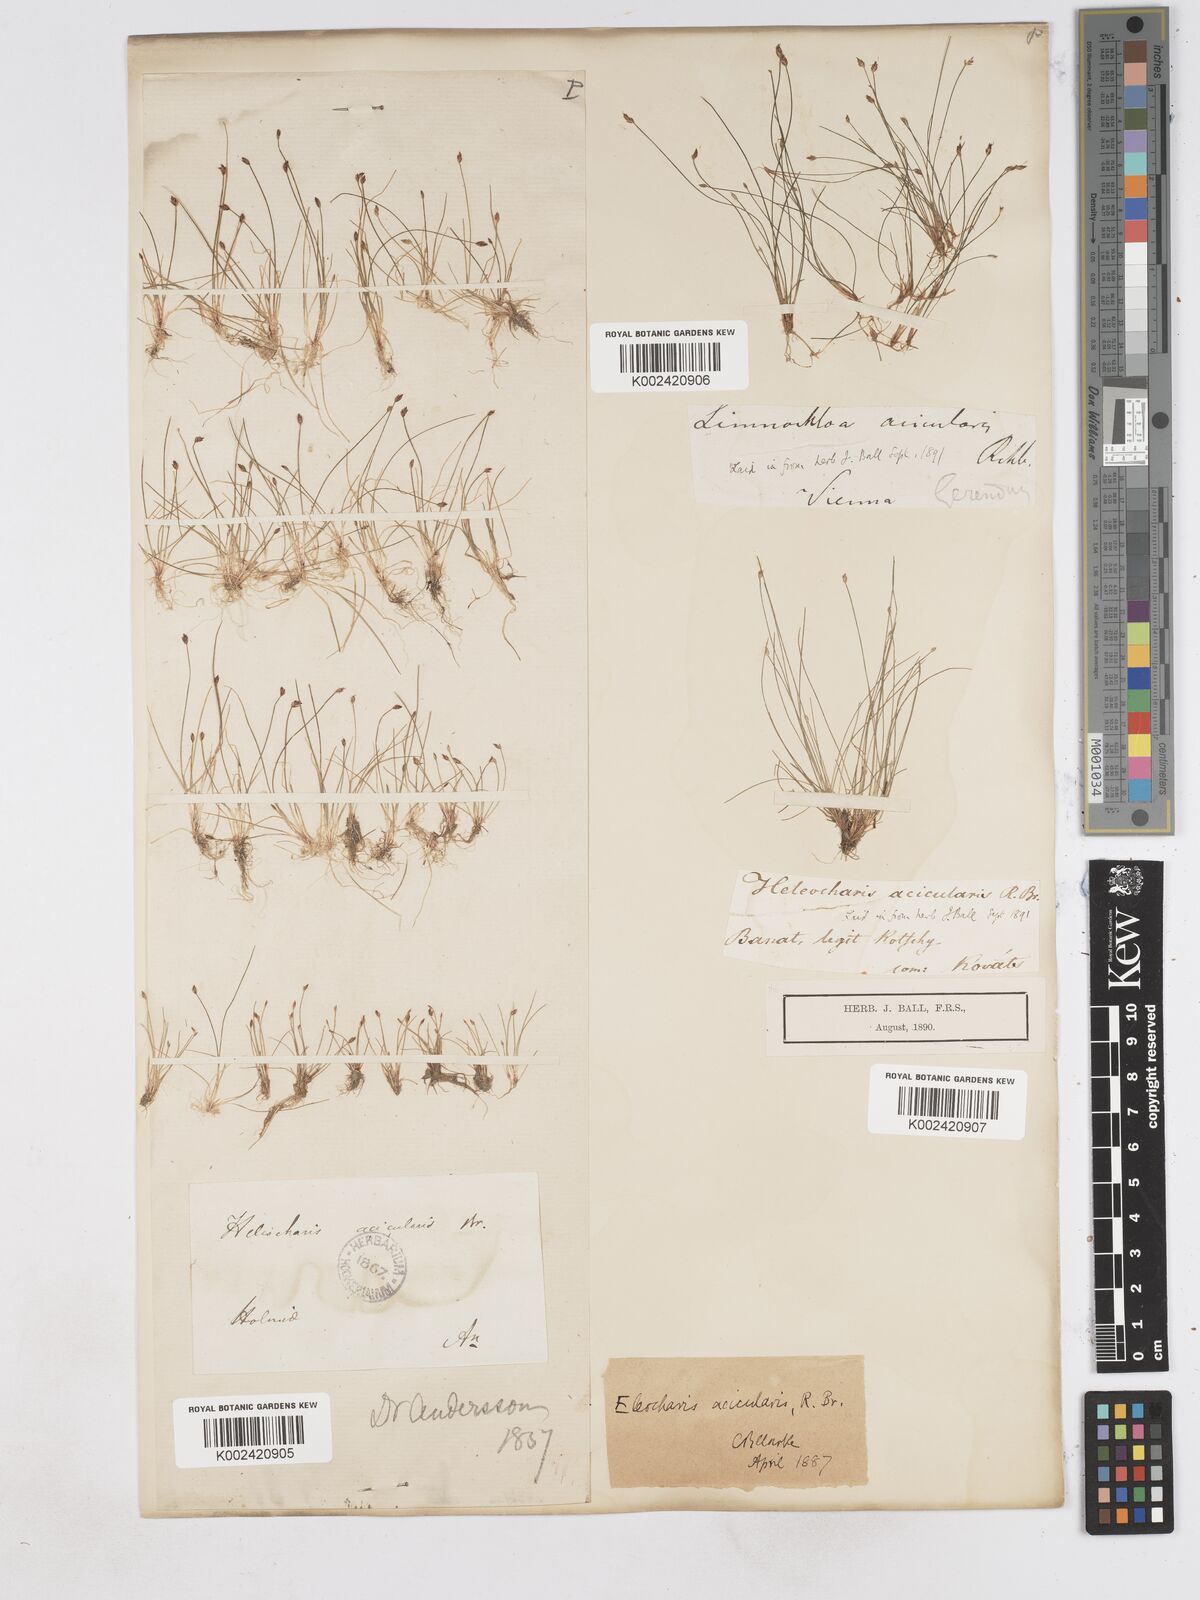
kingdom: Plantae
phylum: Tracheophyta
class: Liliopsida
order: Poales
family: Cyperaceae
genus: Eleocharis
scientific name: Eleocharis acicularis
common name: Needle spike-rush
